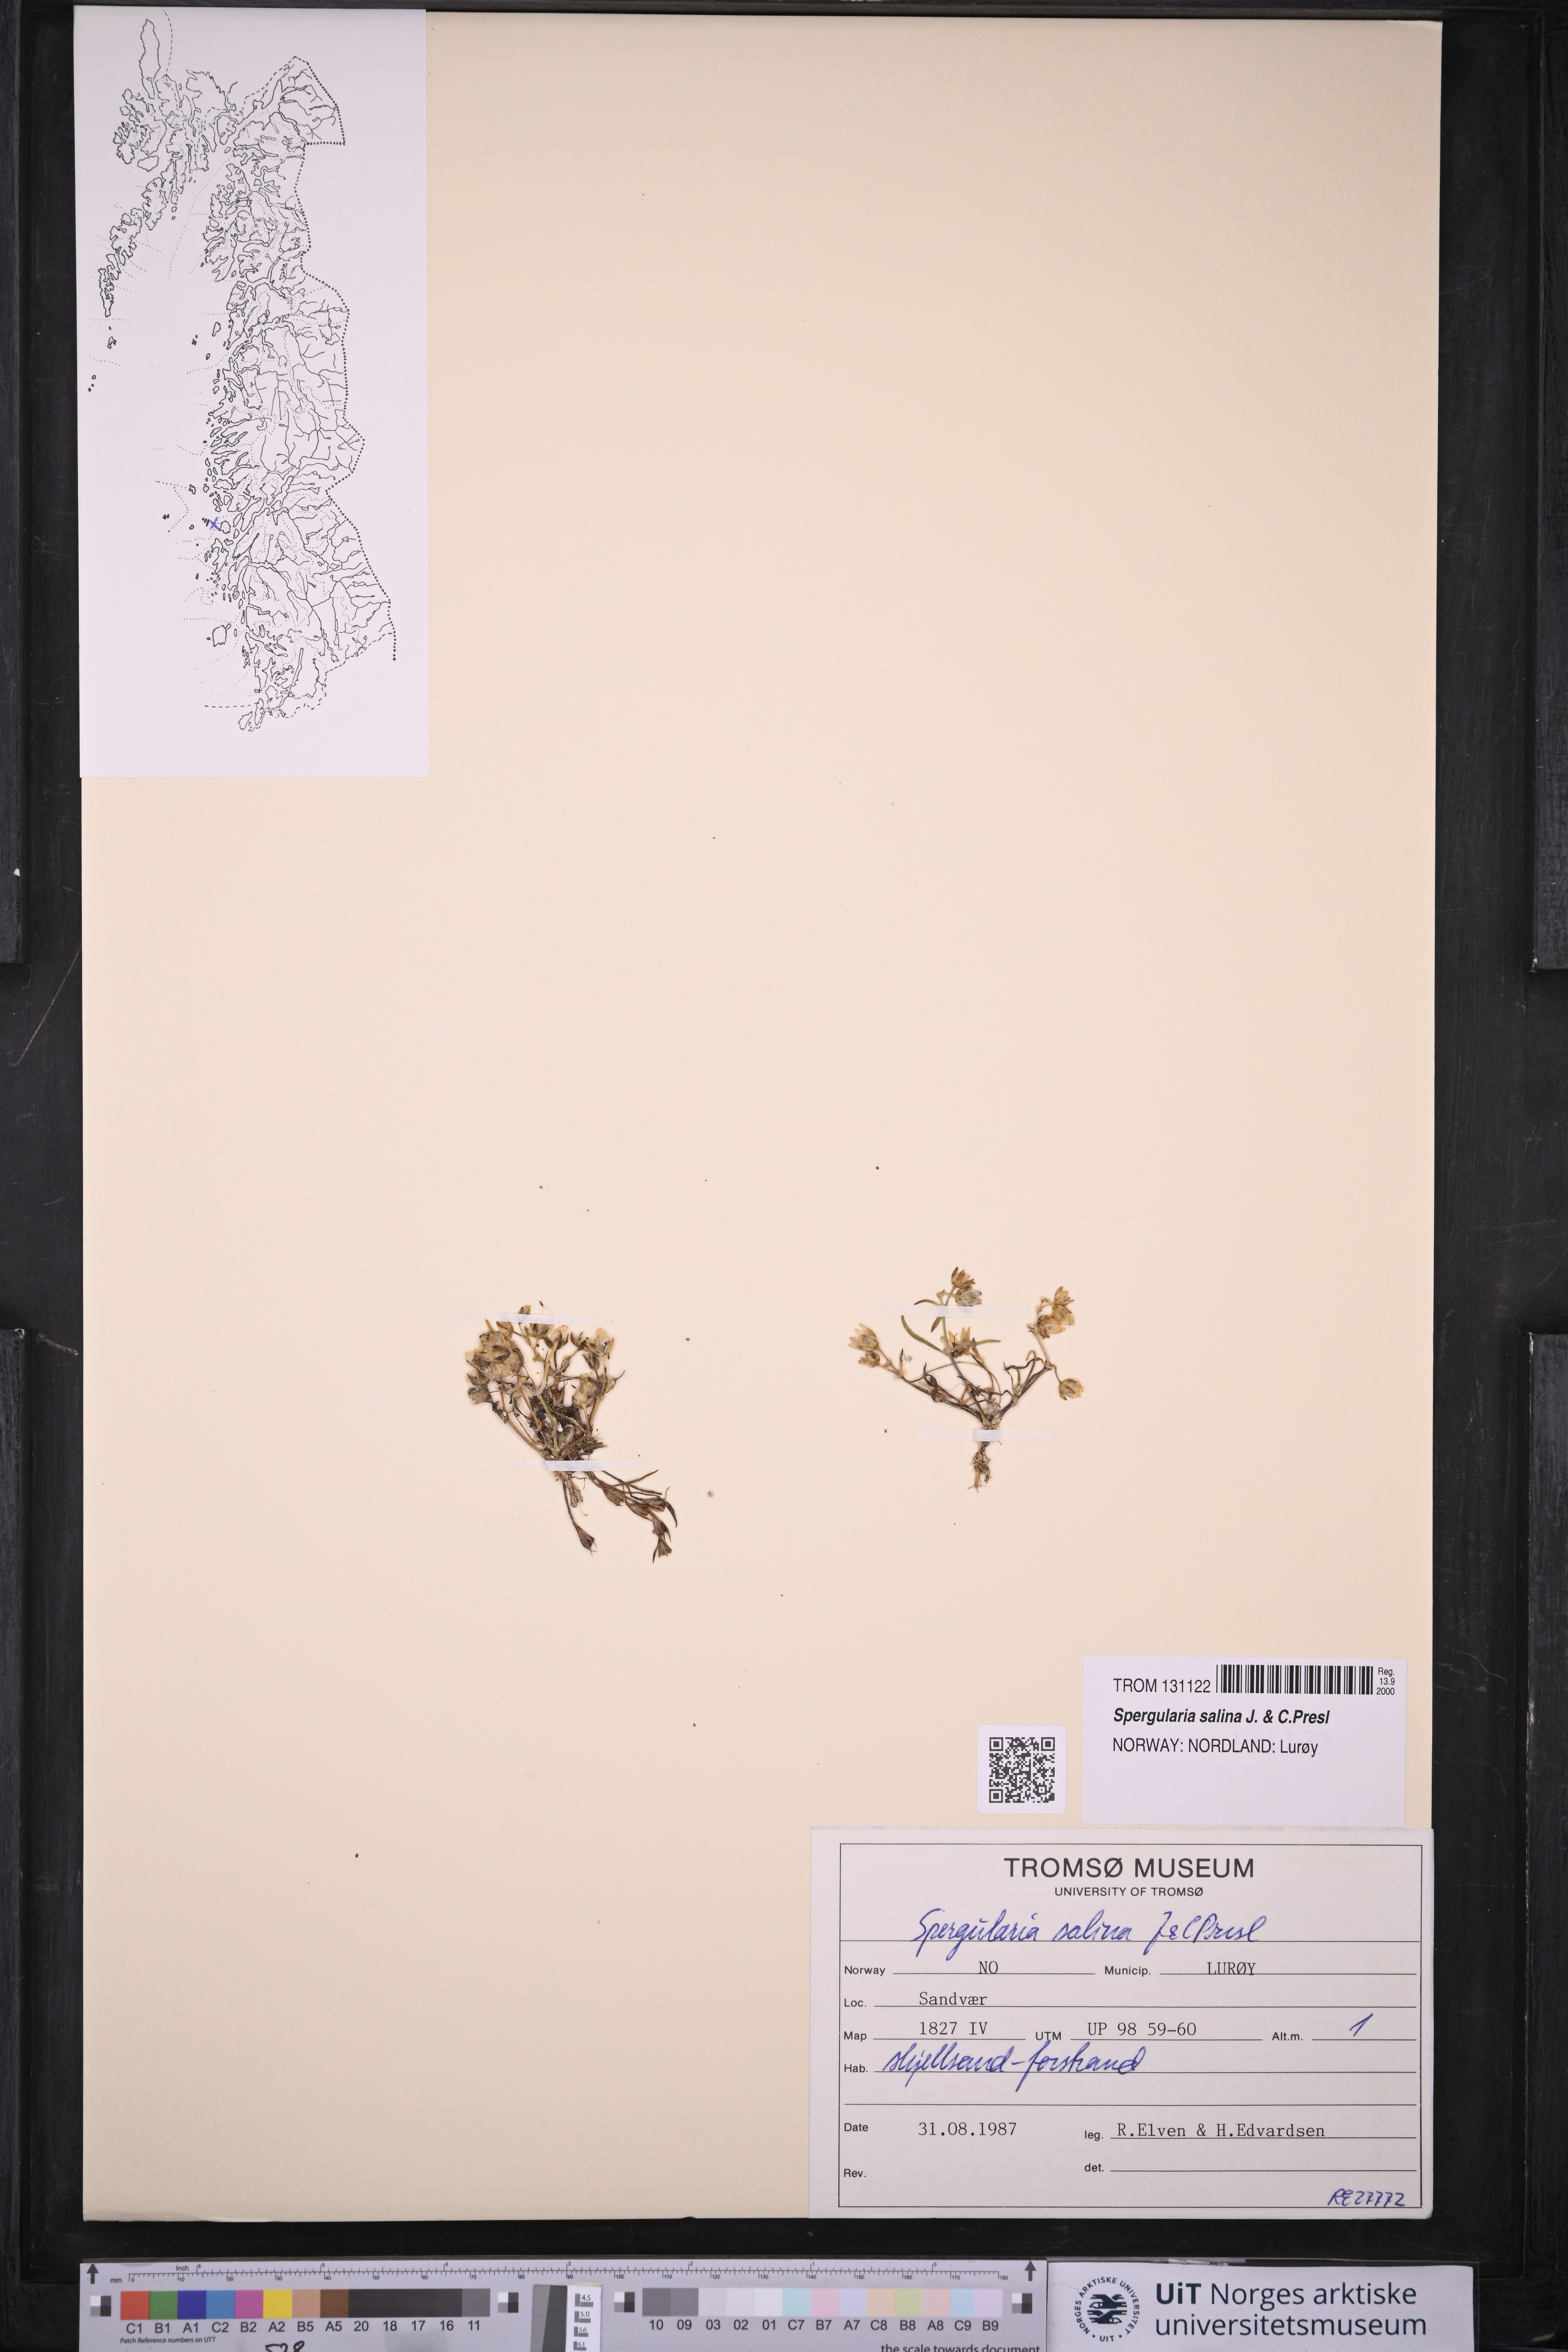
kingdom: Plantae
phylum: Tracheophyta
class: Magnoliopsida
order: Caryophyllales
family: Caryophyllaceae
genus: Spergularia
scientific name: Spergularia marina
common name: Lesser sea-spurrey
